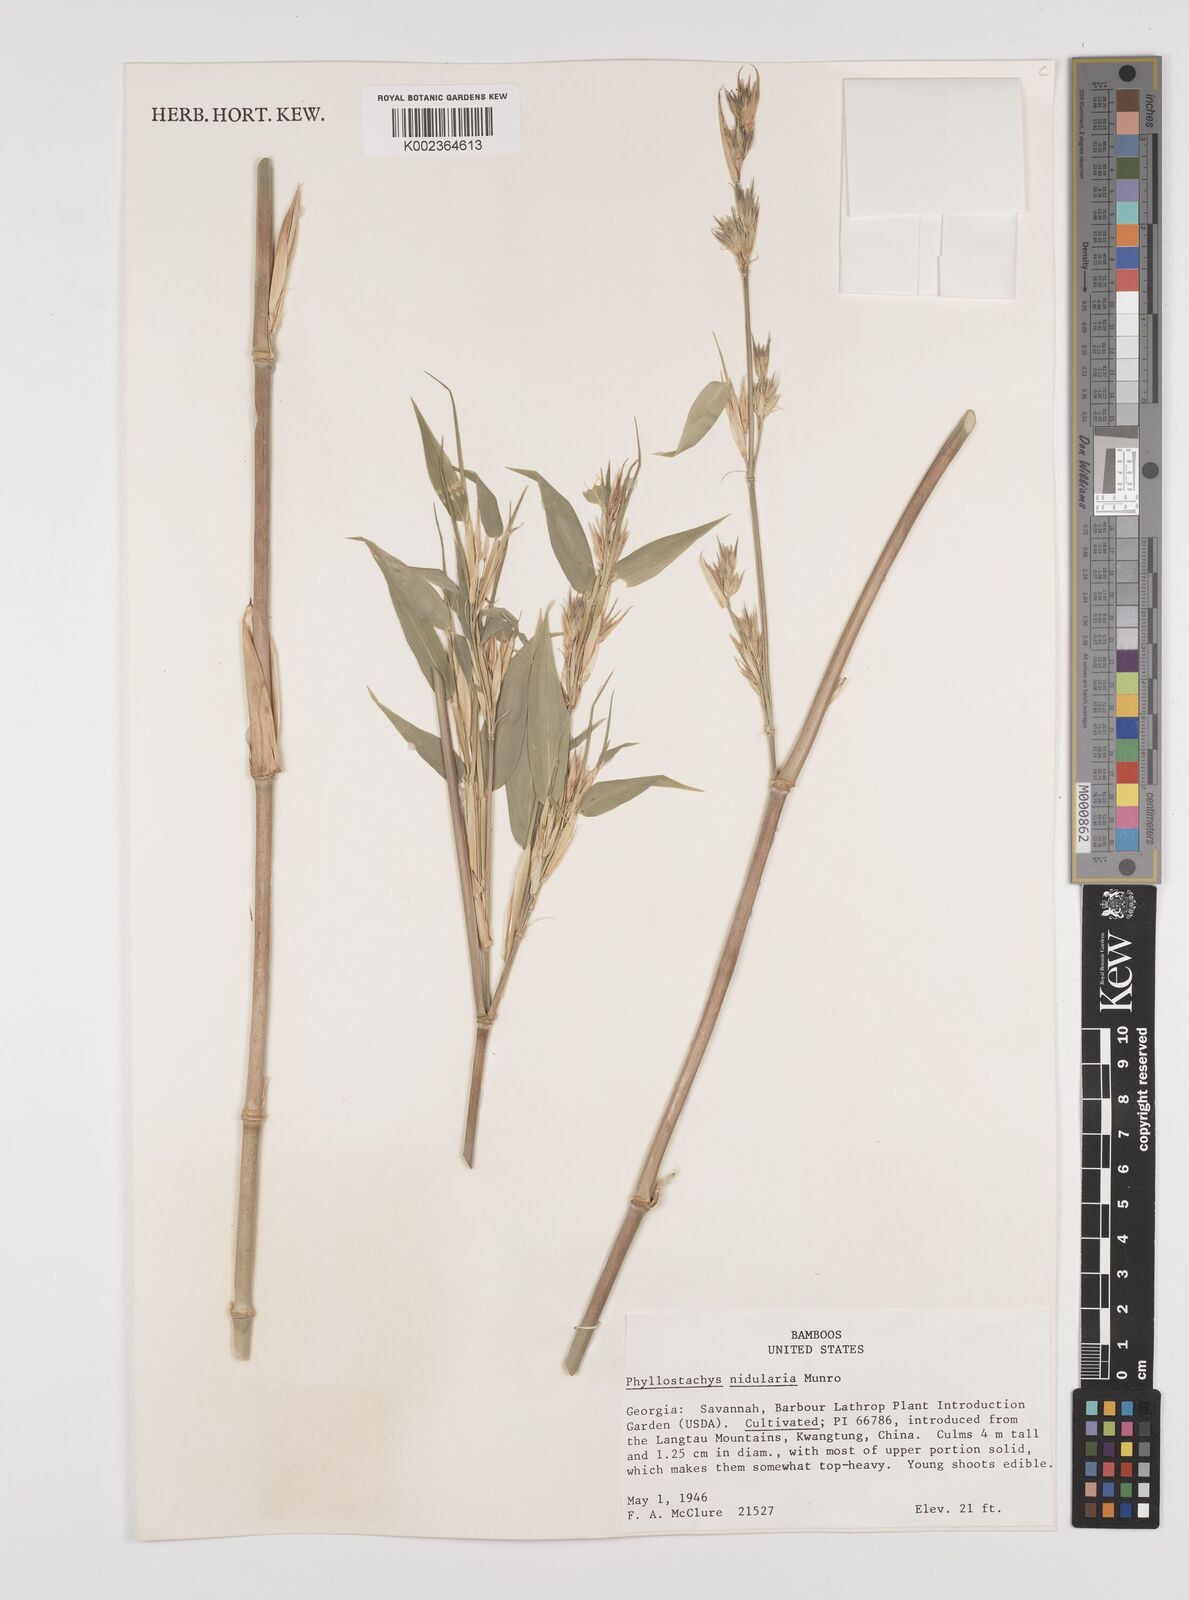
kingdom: Plantae
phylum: Tracheophyta
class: Liliopsida
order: Poales
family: Poaceae
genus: Phyllostachys
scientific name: Phyllostachys nidularia
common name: Broom bamboo
